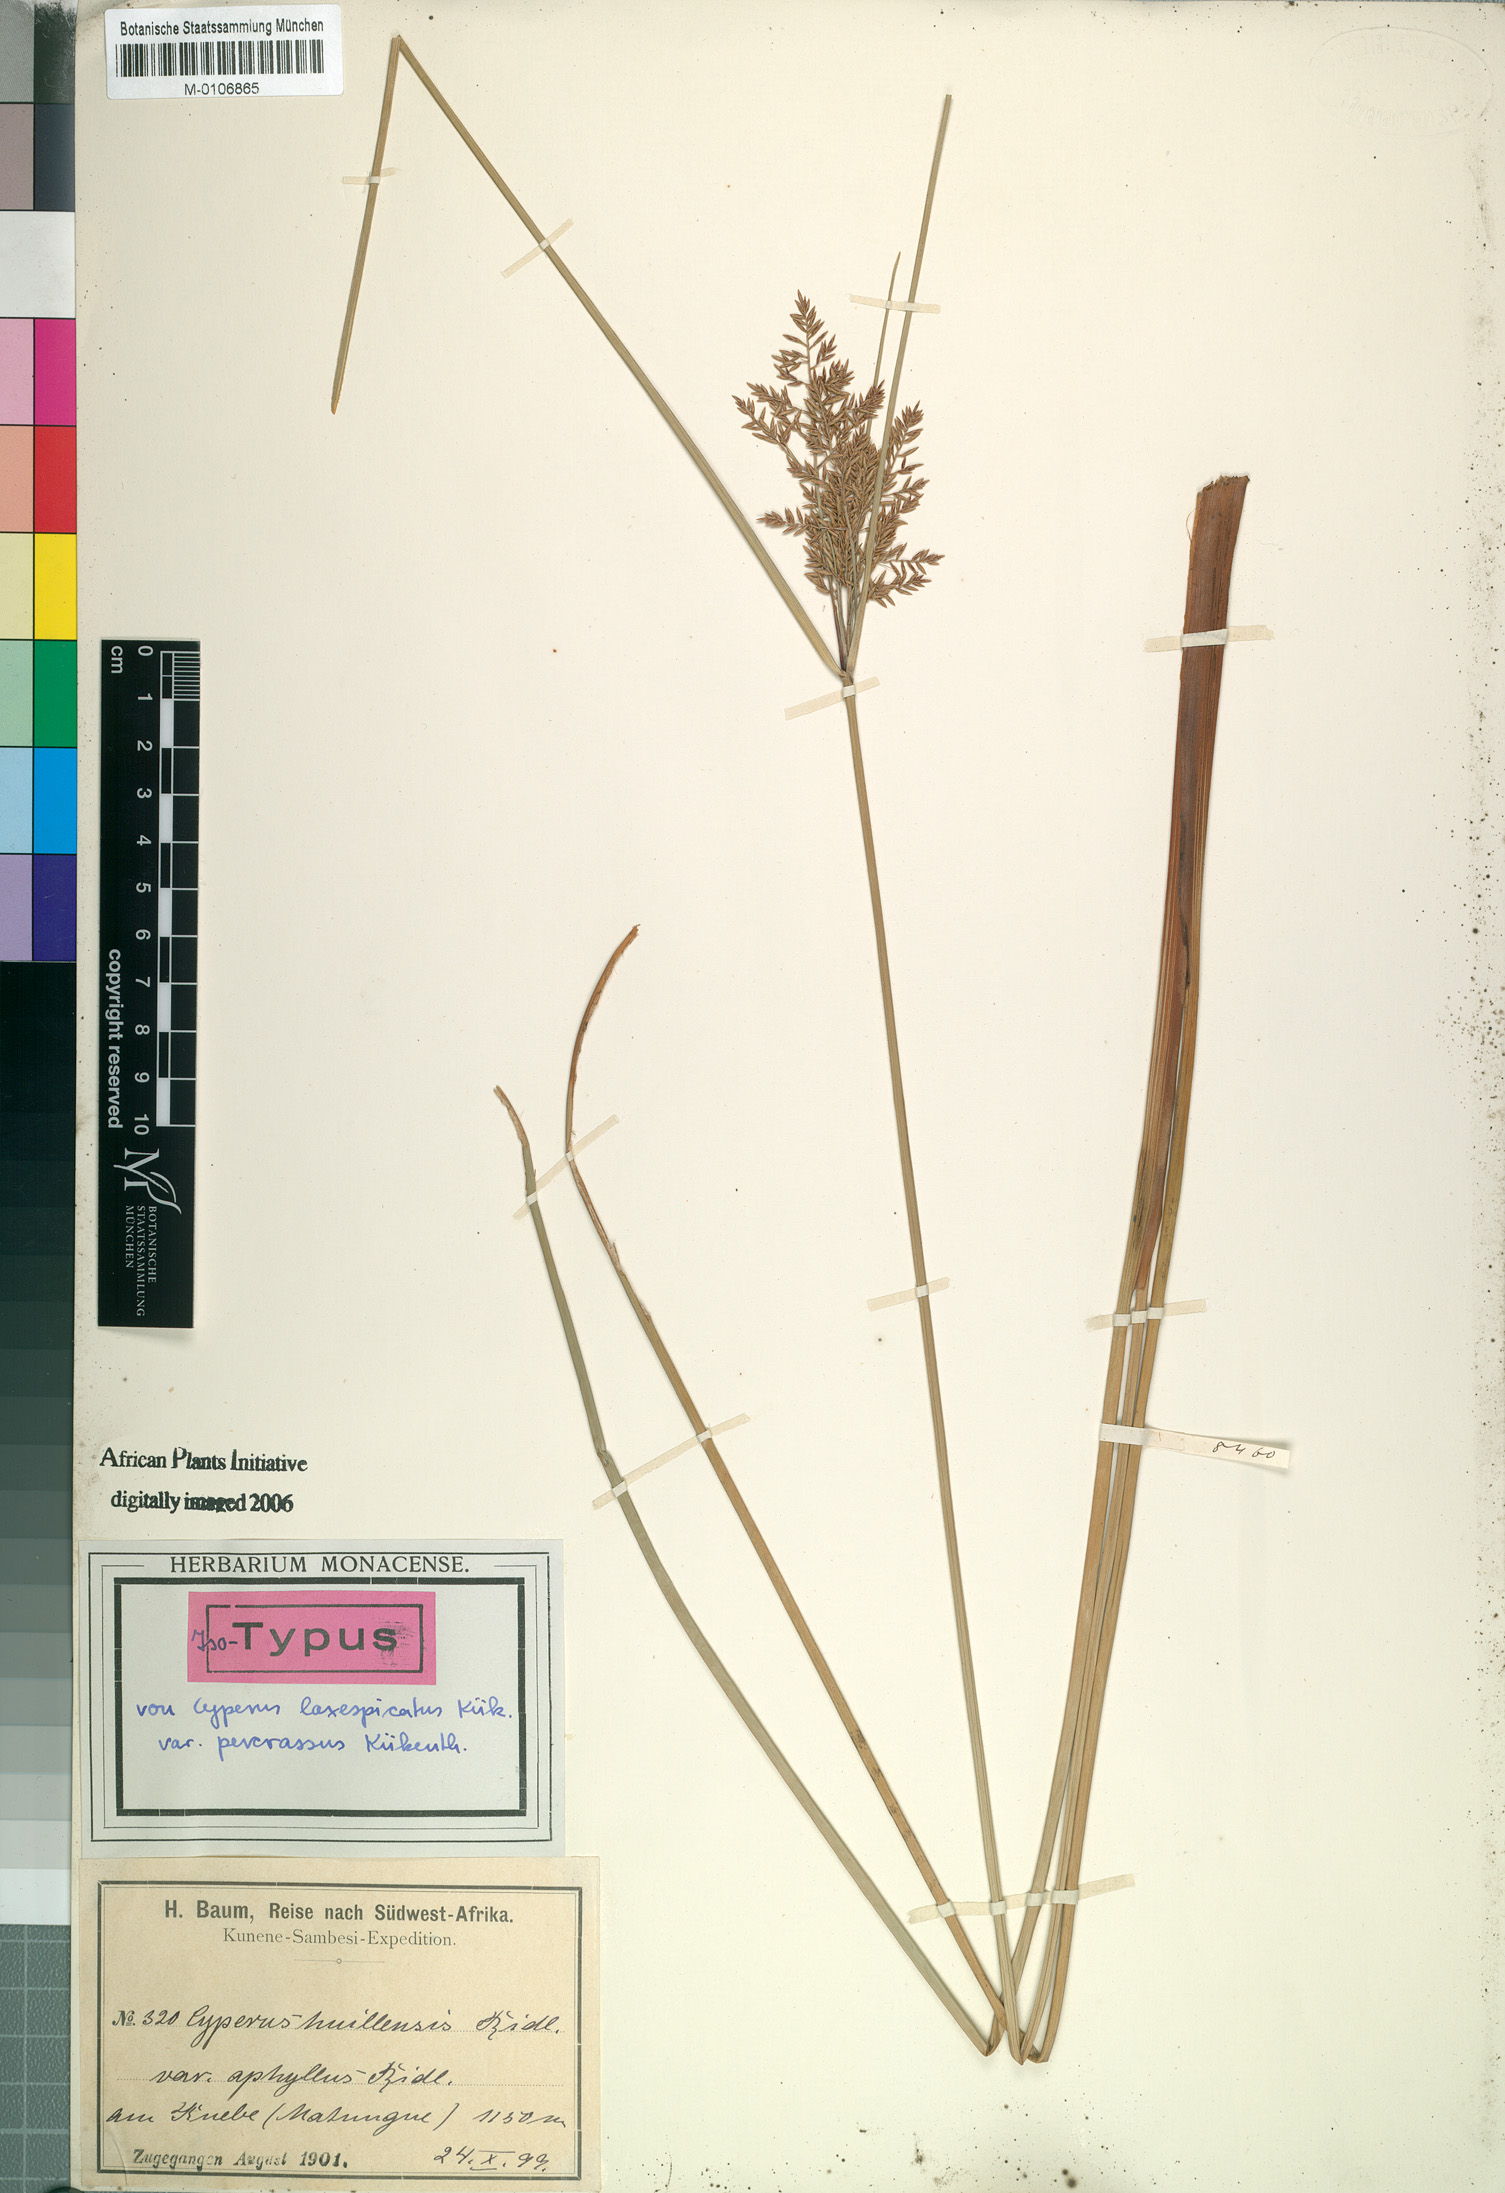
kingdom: Plantae
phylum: Tracheophyta
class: Liliopsida
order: Poales
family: Cyperaceae
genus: Cyperus
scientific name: Cyperus laxespicatus
